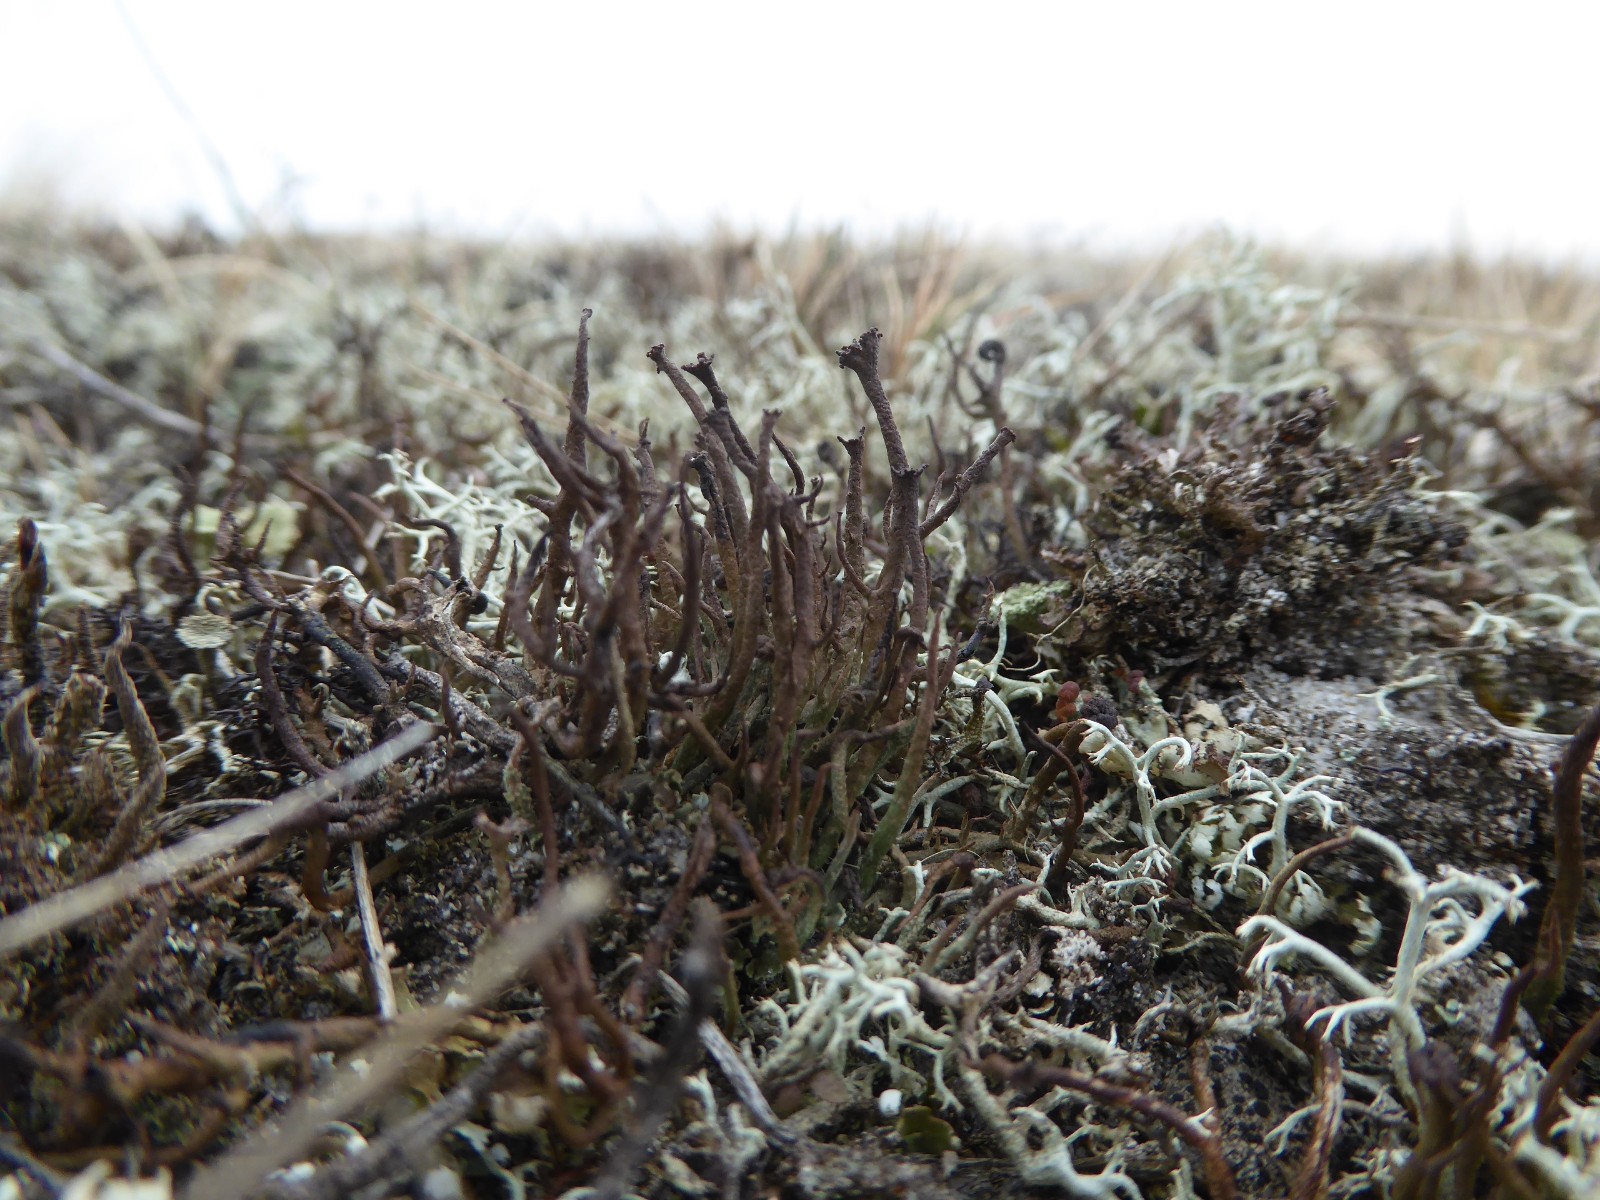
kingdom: Fungi
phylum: Ascomycota
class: Lecanoromycetes
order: Lecanorales
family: Cladoniaceae
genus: Cladonia
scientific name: Cladonia gracilis
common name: slank bægerlav
